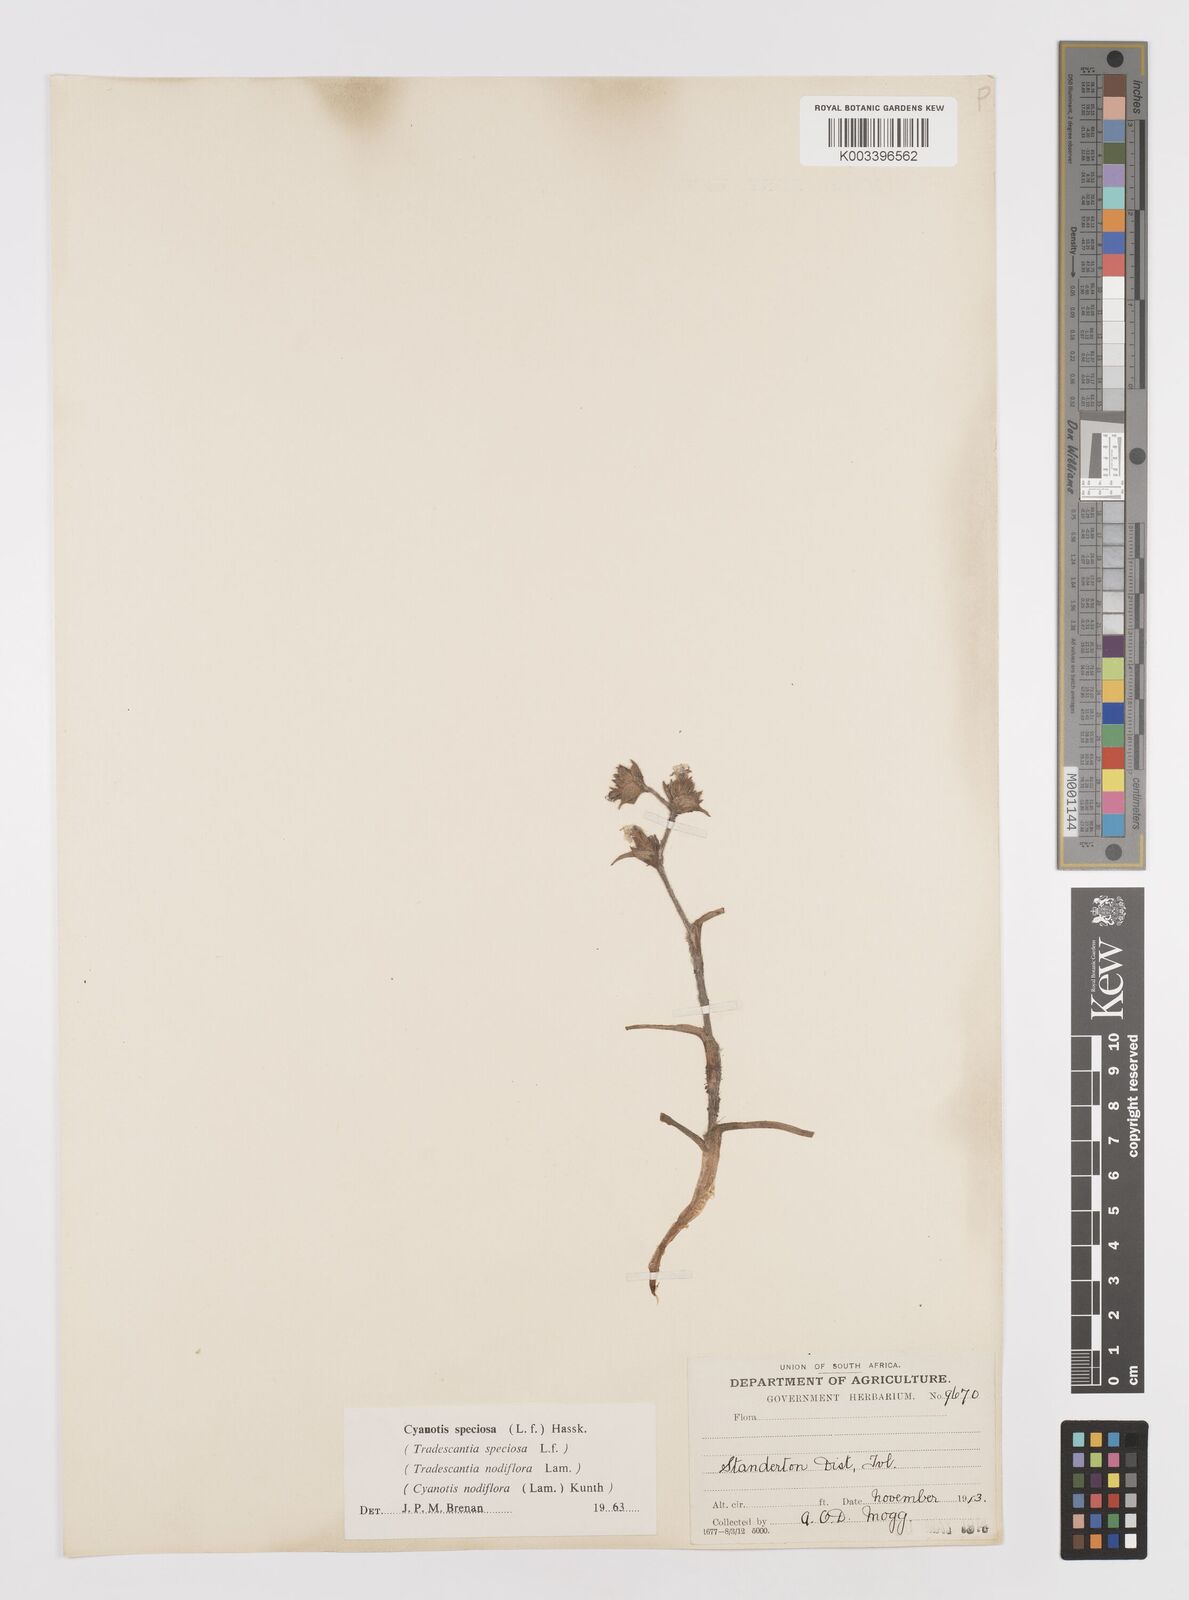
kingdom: Plantae
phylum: Tracheophyta
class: Liliopsida
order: Commelinales
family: Commelinaceae
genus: Cyanotis
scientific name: Cyanotis speciosa
